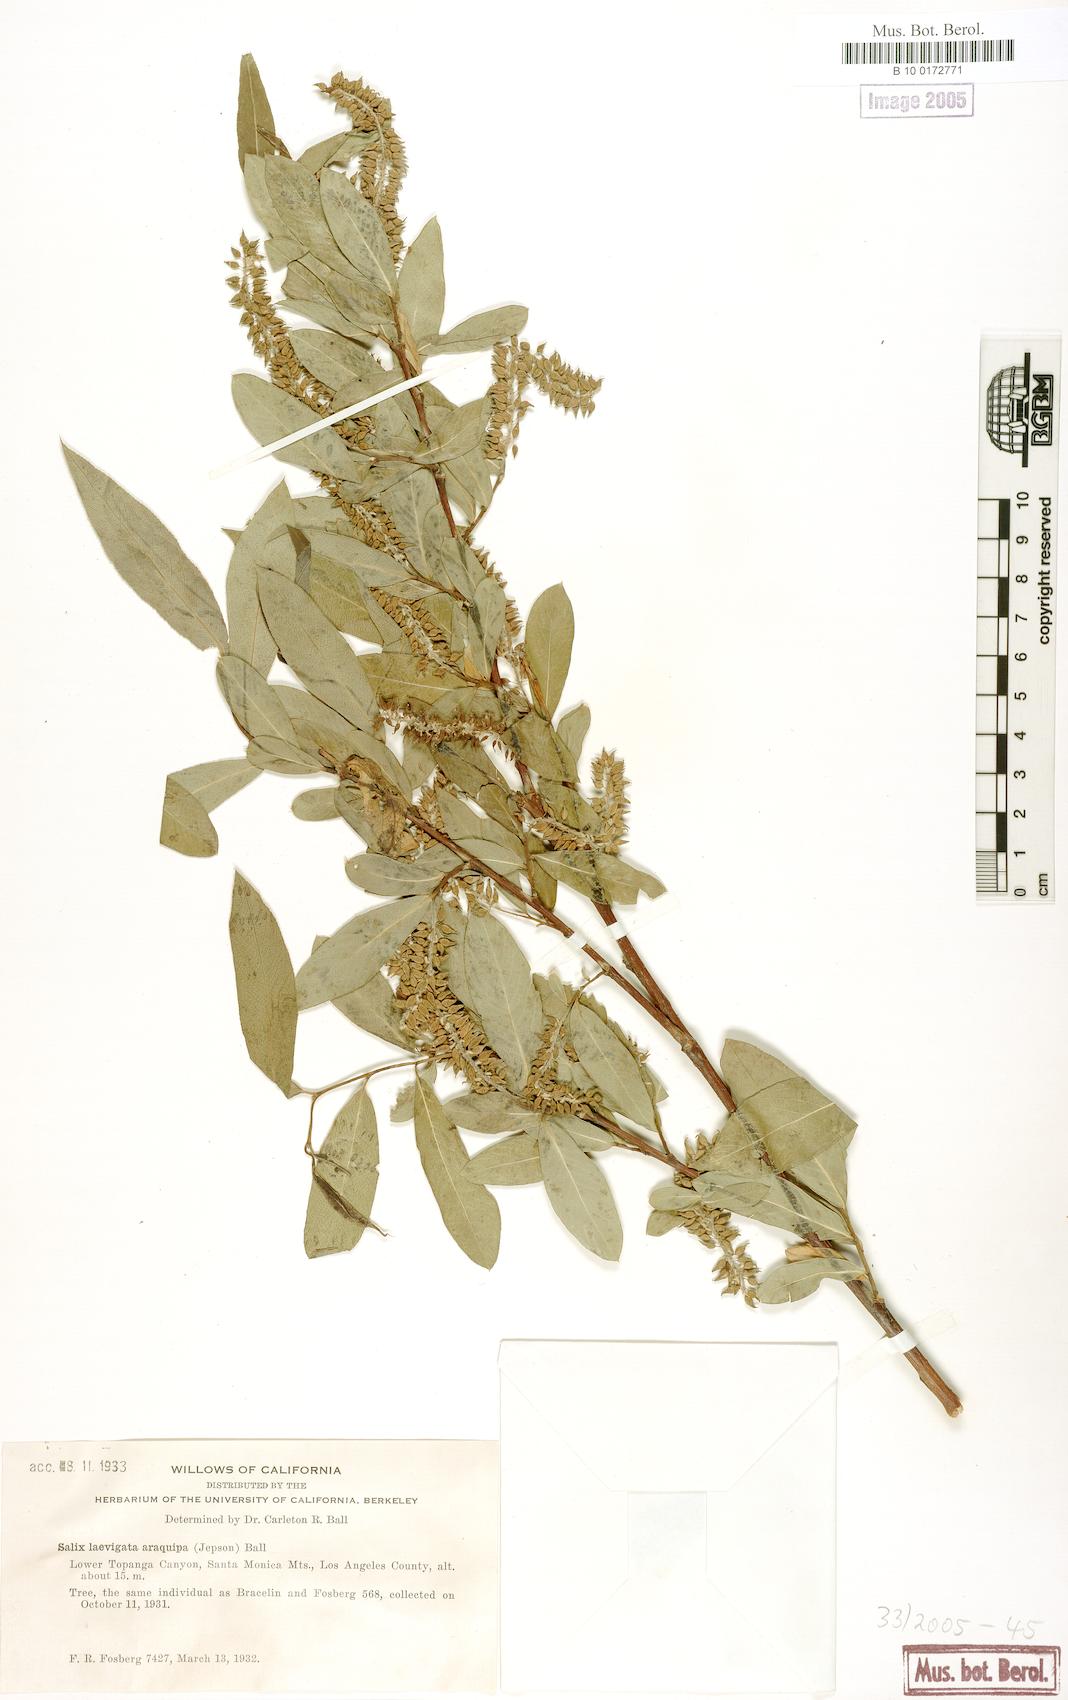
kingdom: Plantae
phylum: Tracheophyta
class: Magnoliopsida
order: Malpighiales
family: Salicaceae
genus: Salix
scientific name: Salix laevigata
